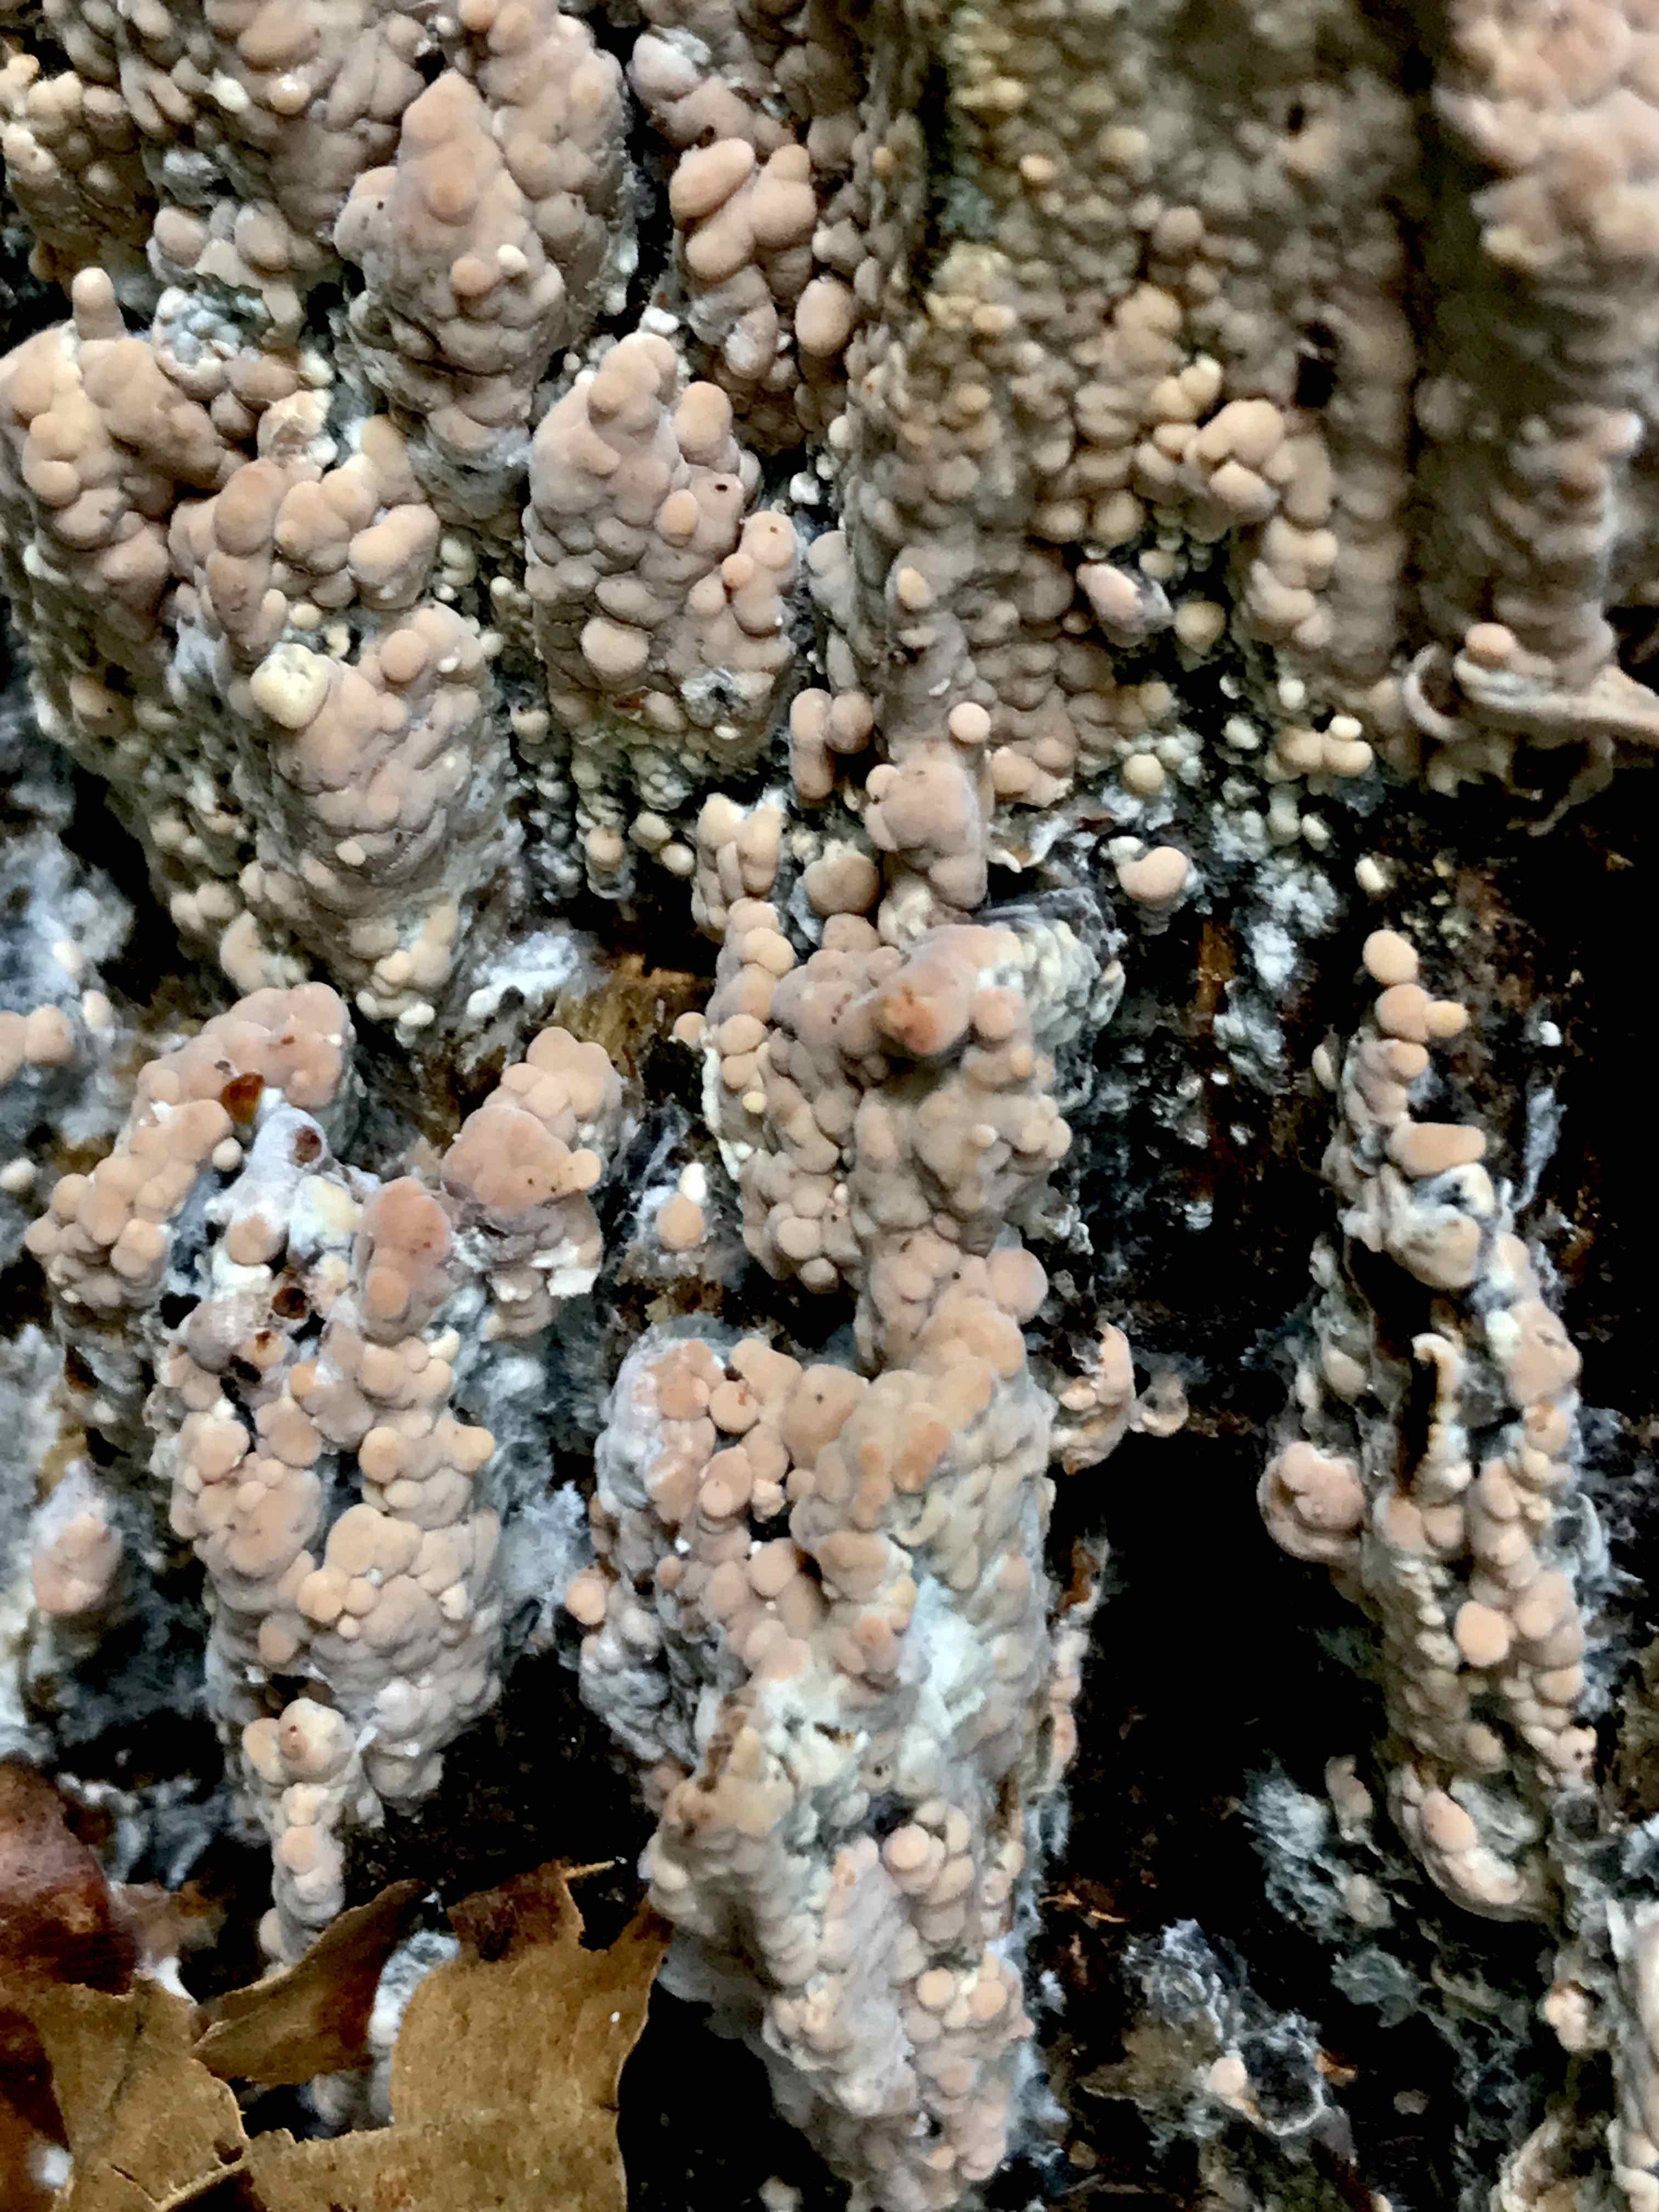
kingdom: Fungi
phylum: Basidiomycota
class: Agaricomycetes
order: Russulales
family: Peniophoraceae
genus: Gloiothele
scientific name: Gloiothele lactescens
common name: bitter olieskind
